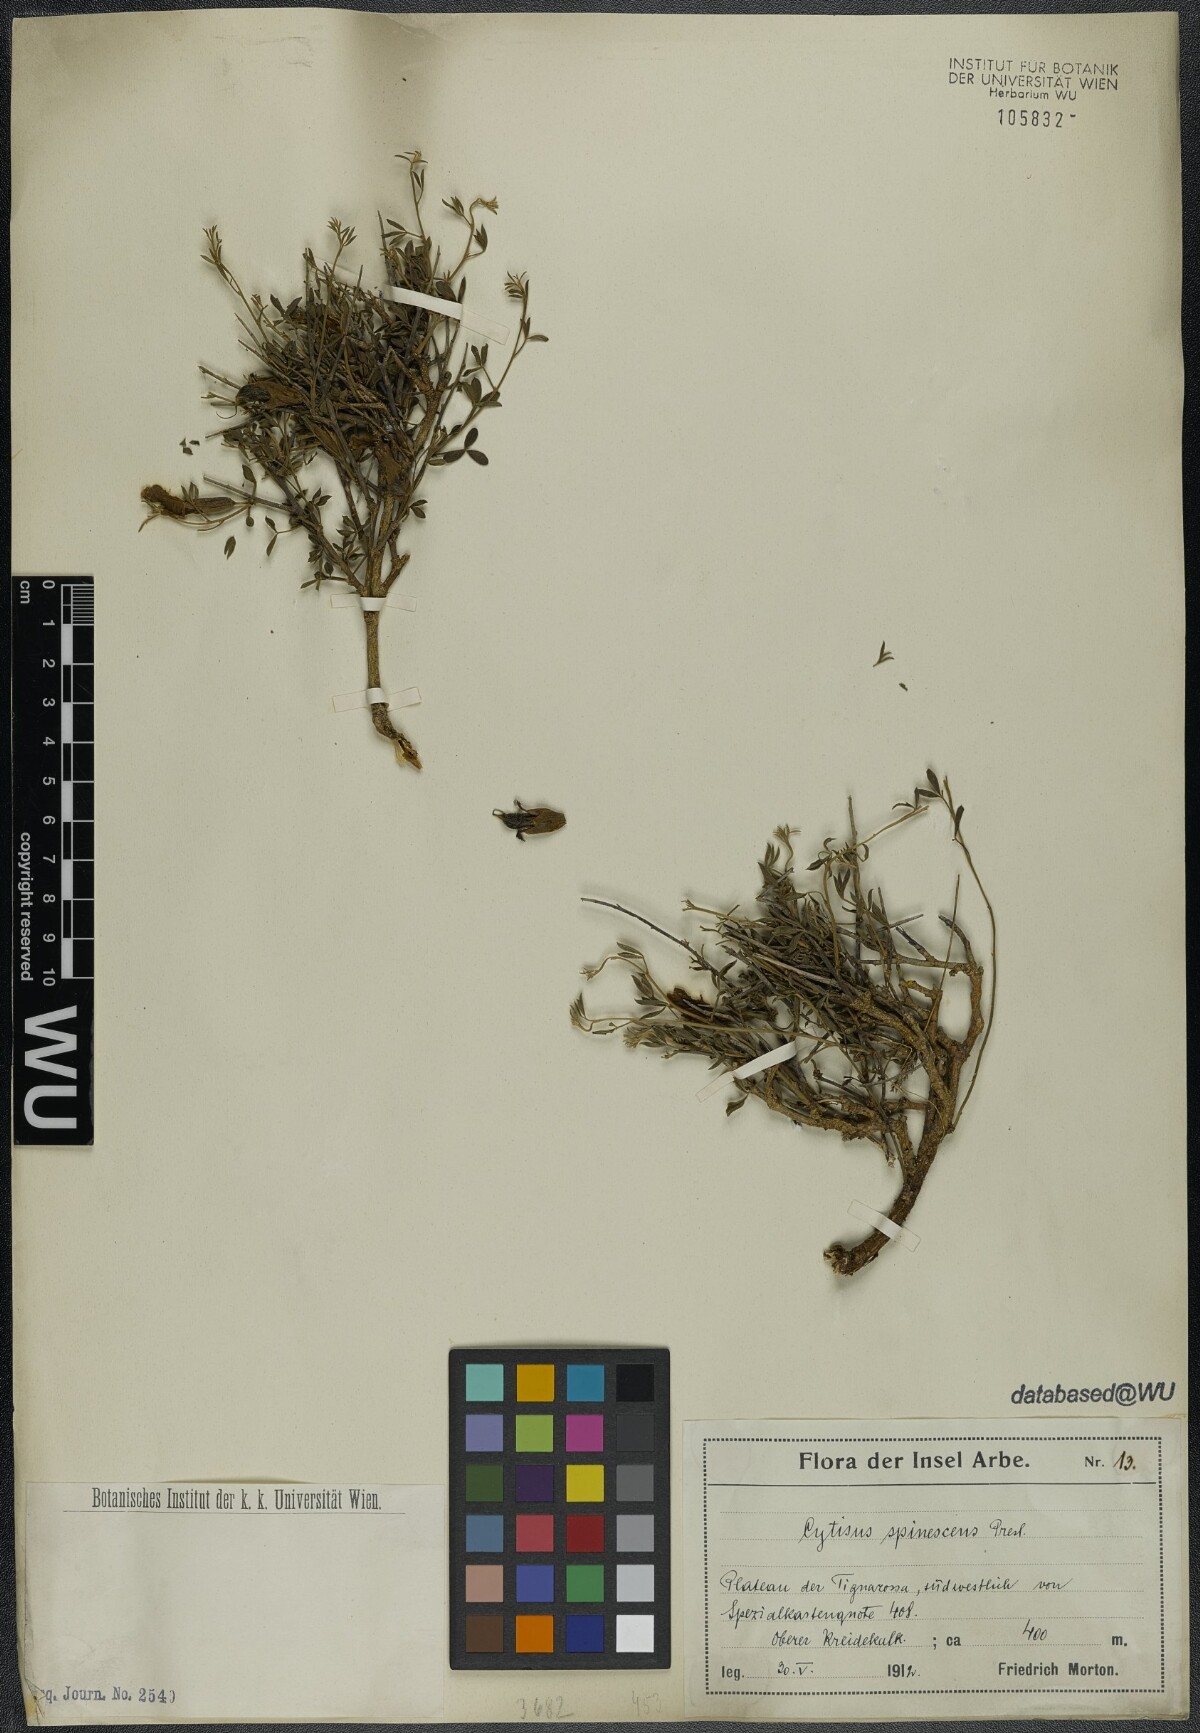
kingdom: Plantae
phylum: Tracheophyta
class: Magnoliopsida
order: Fabales
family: Fabaceae
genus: Chamaecytisus
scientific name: Chamaecytisus spinescens
